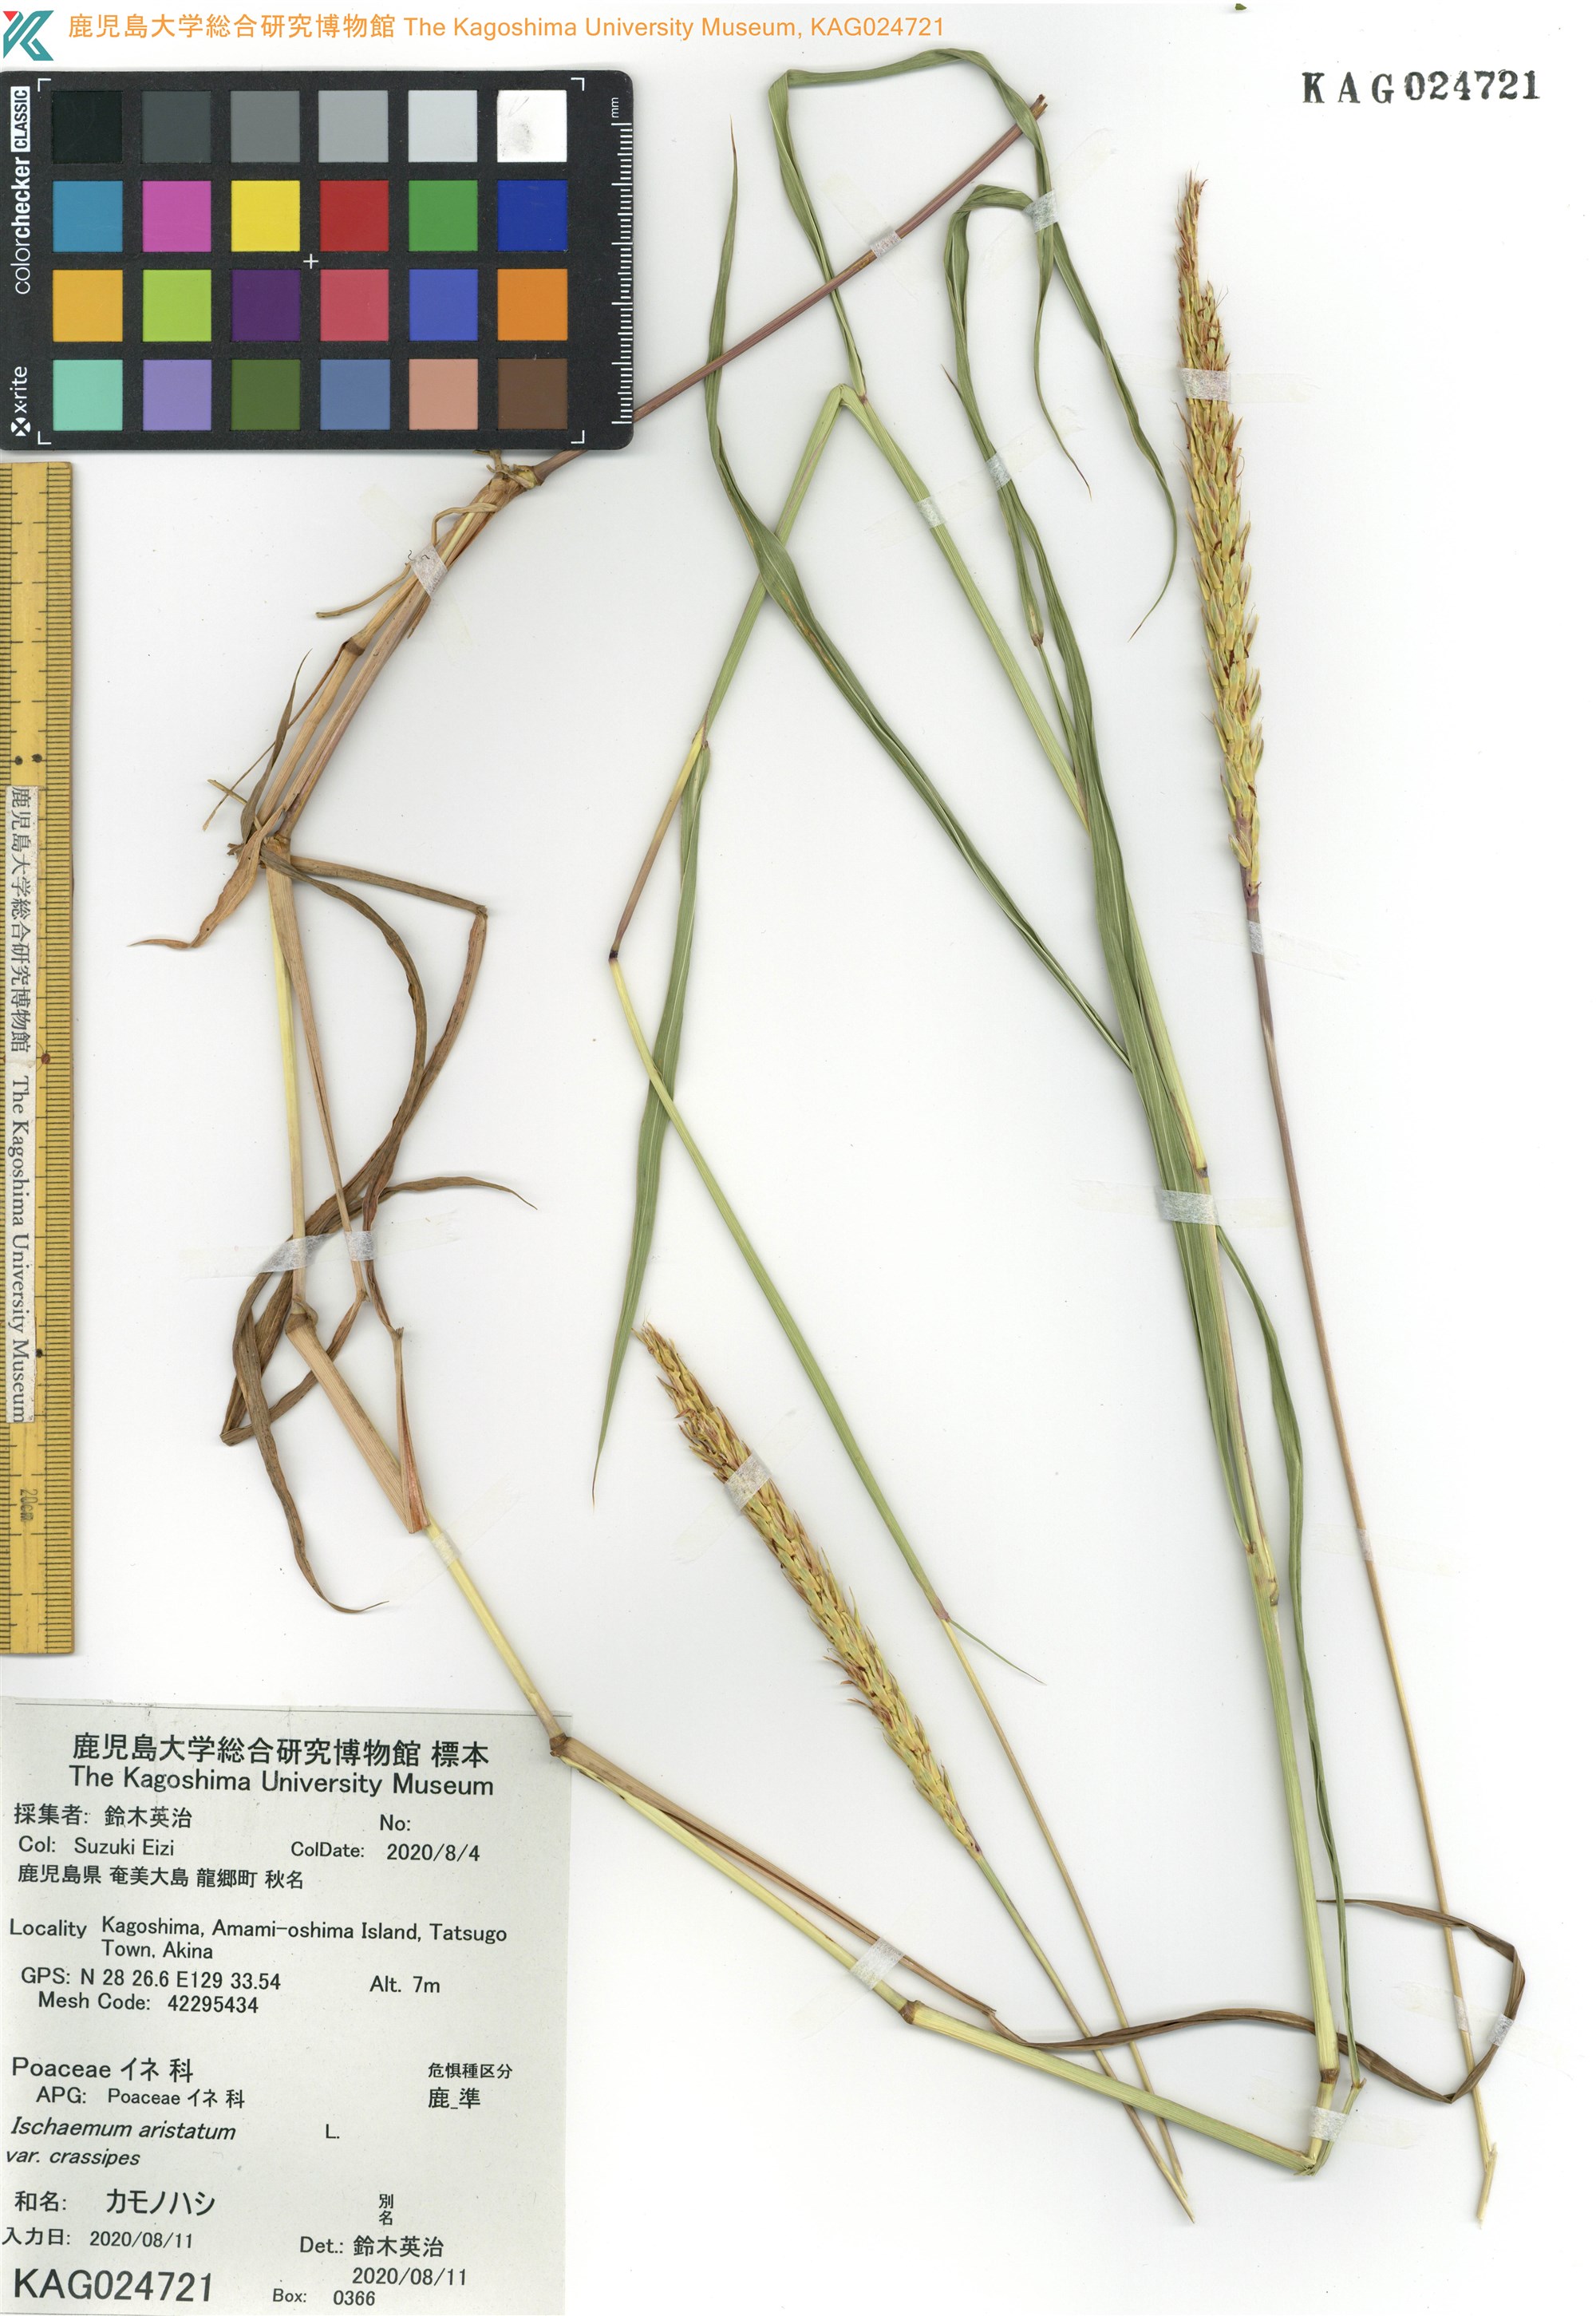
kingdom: Plantae
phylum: Tracheophyta
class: Liliopsida
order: Poales
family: Poaceae
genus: Ischaemum
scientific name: Ischaemum aristatum
